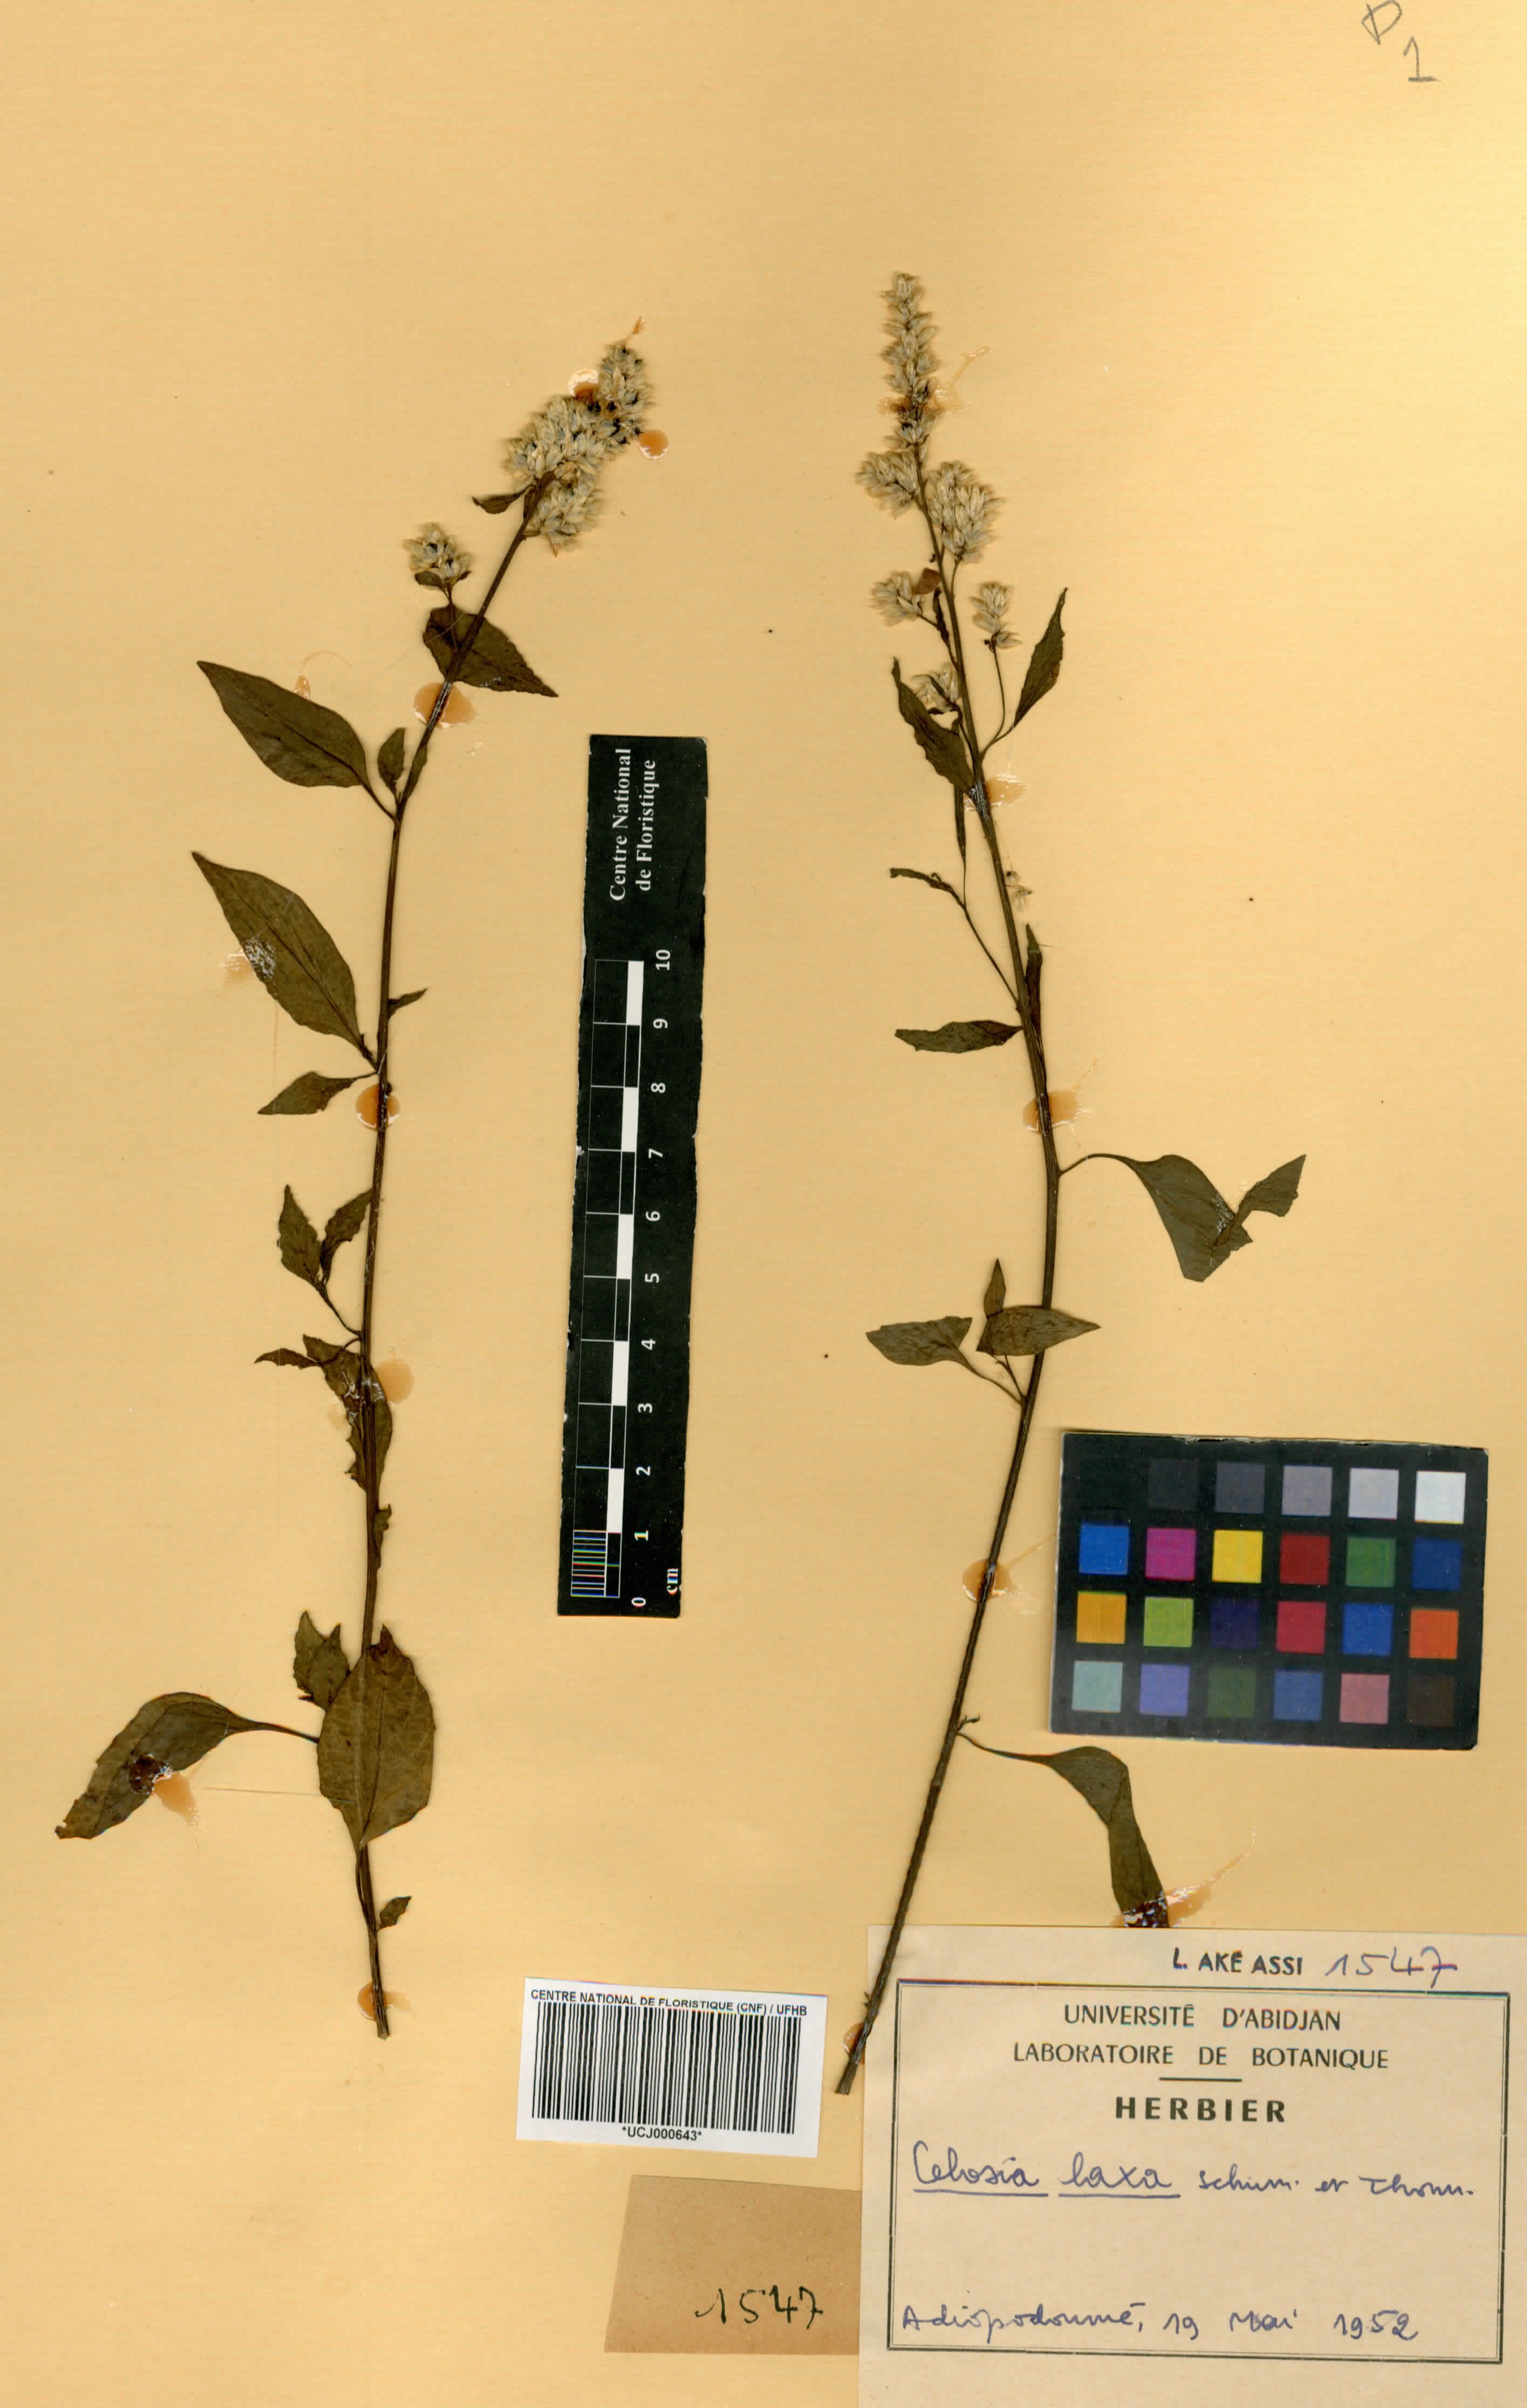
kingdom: Plantae
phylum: Tracheophyta
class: Magnoliopsida
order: Caryophyllales
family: Amaranthaceae
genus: Celosia
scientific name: Celosia trigyna
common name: Woolflower
